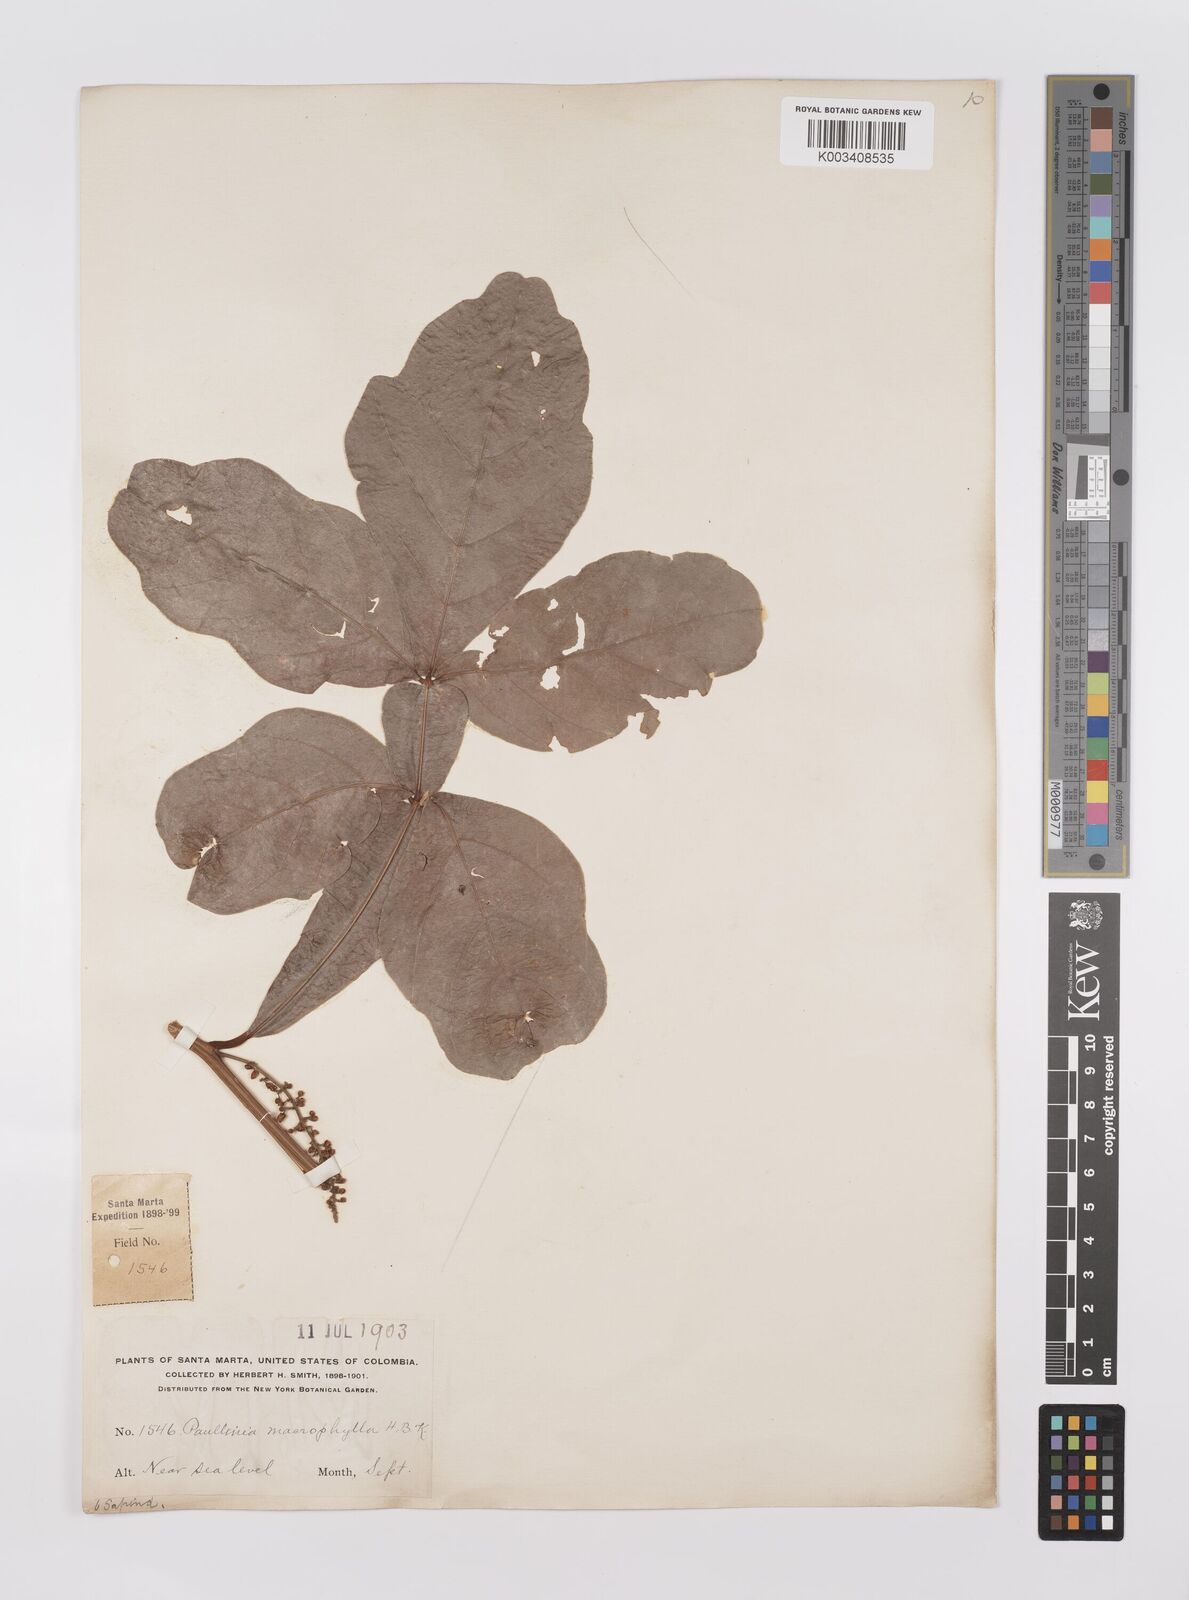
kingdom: Plantae
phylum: Tracheophyta
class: Magnoliopsida
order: Sapindales
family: Sapindaceae
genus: Paullinia
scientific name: Paullinia
